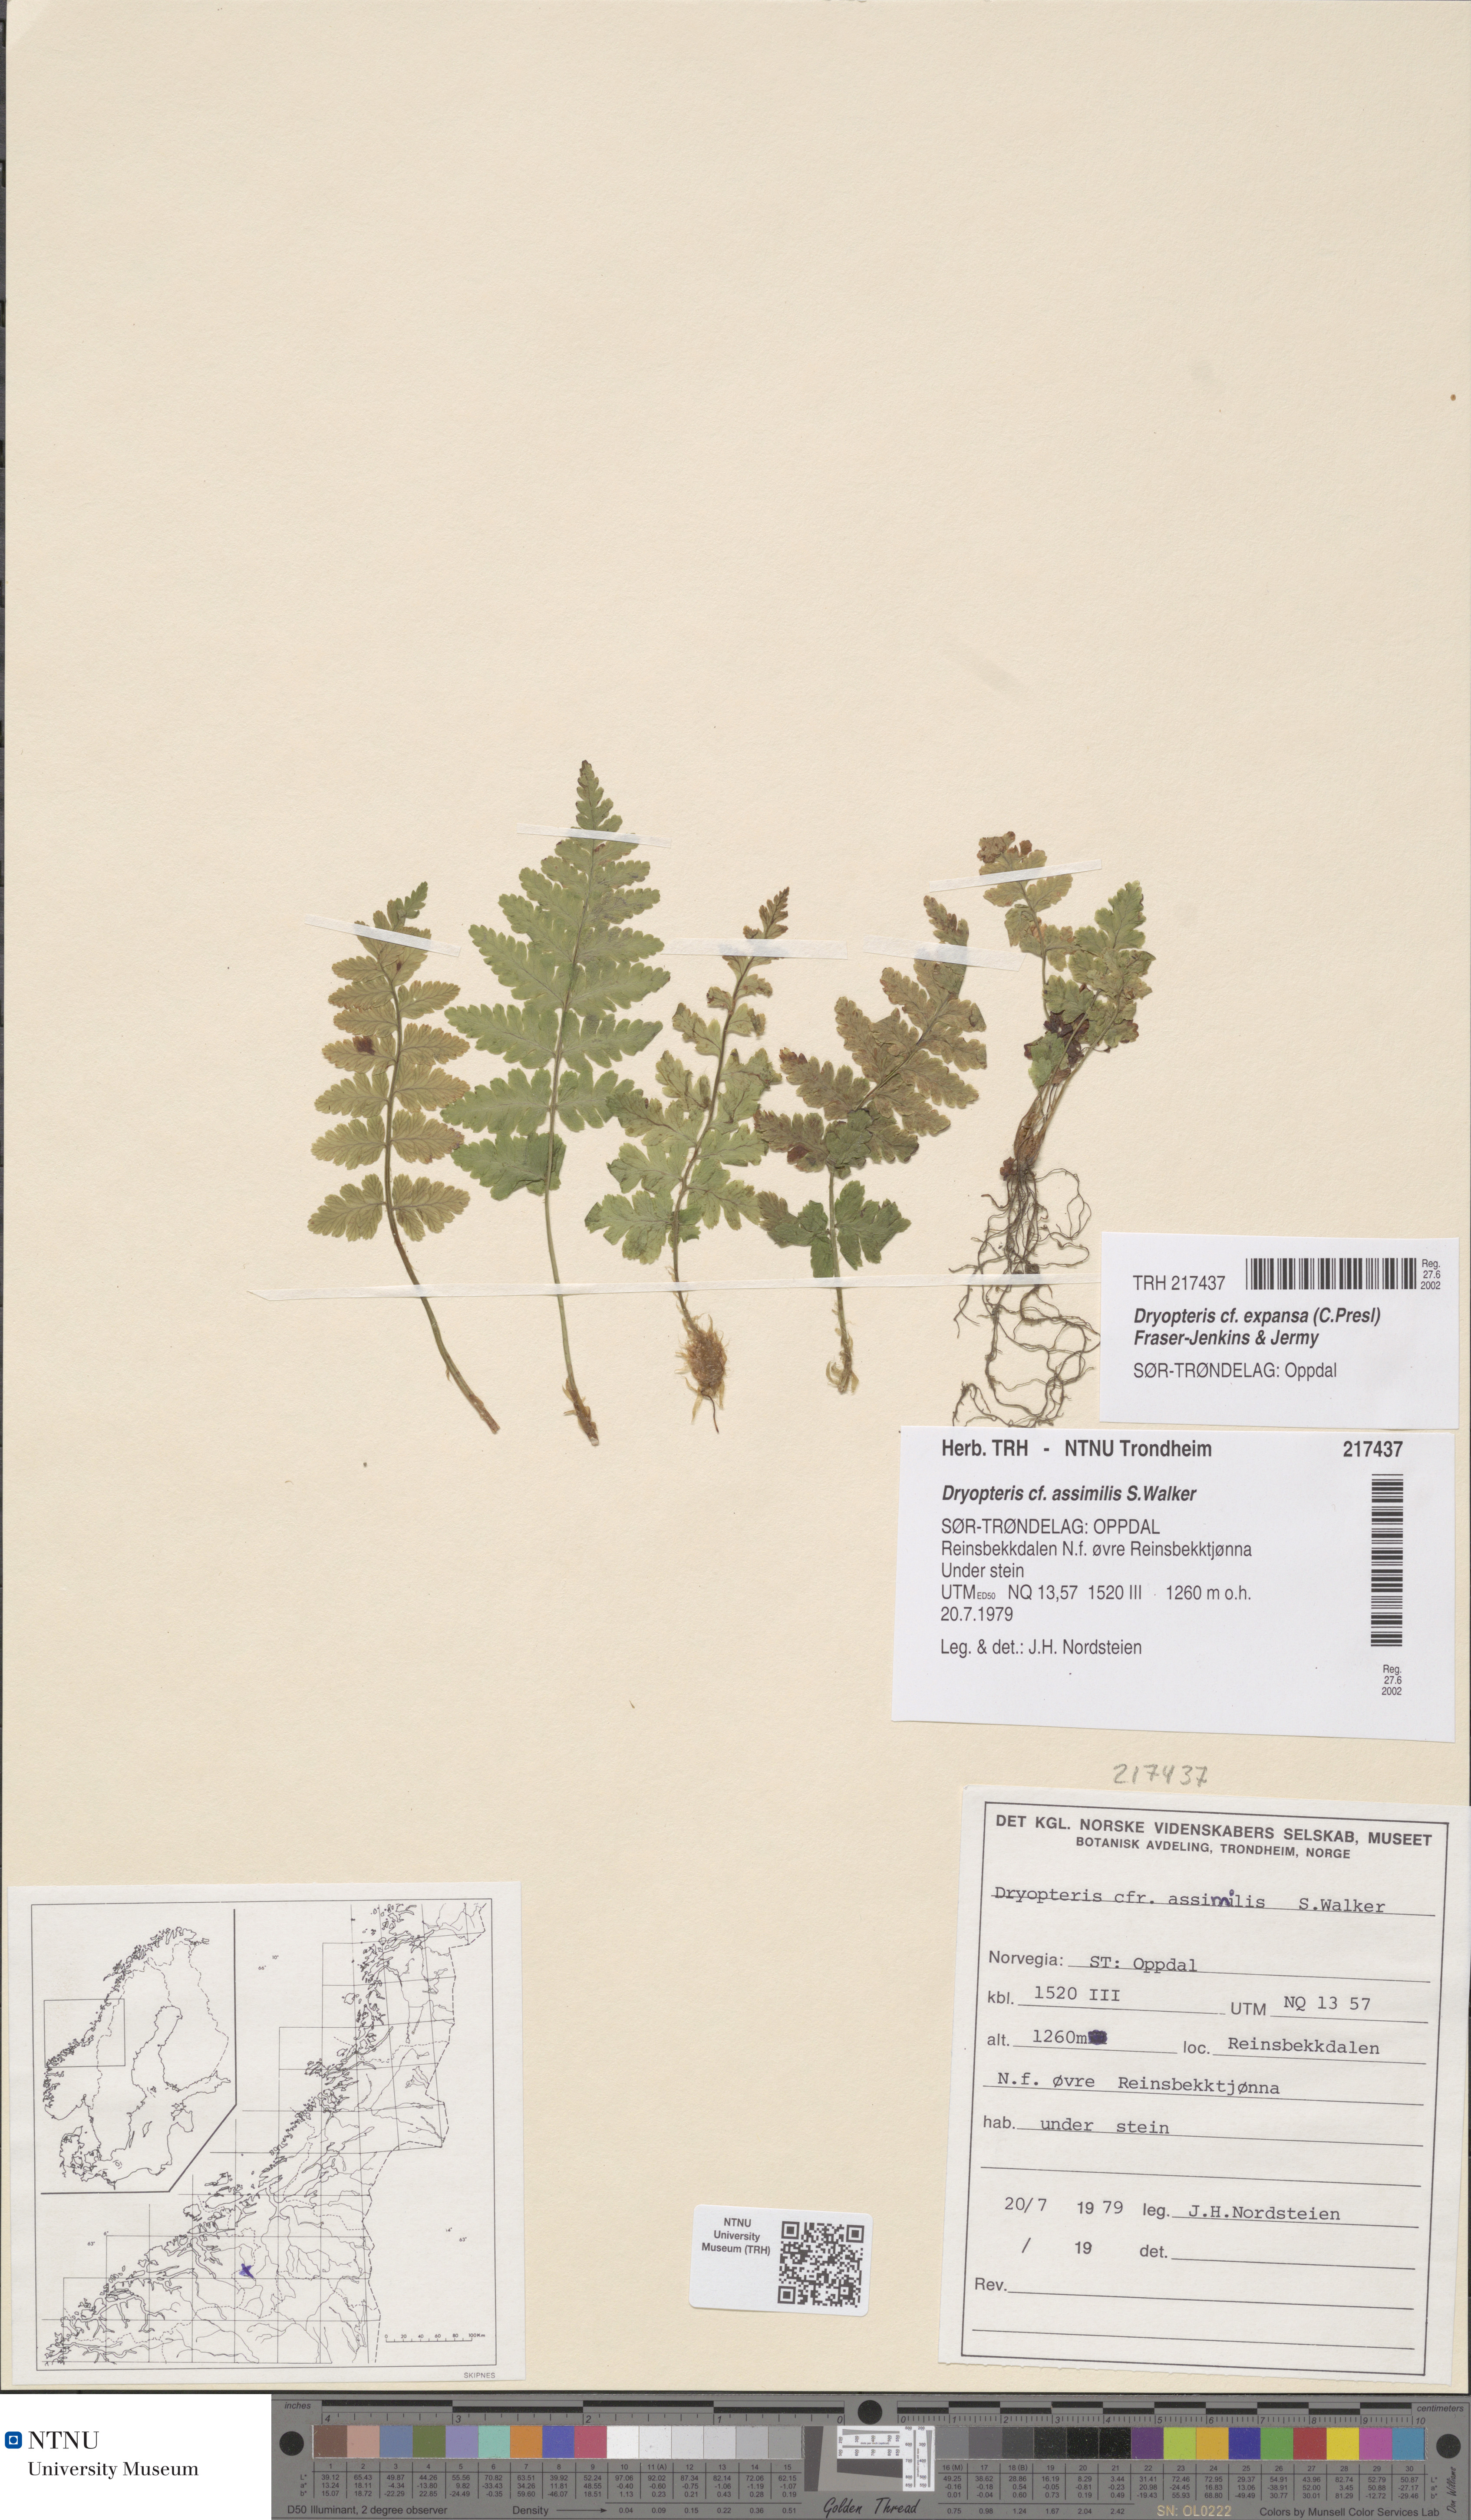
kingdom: Plantae
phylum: Tracheophyta
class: Polypodiopsida
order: Polypodiales
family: Dryopteridaceae
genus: Dryopteris
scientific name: Dryopteris expansa
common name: Northern buckler fern
